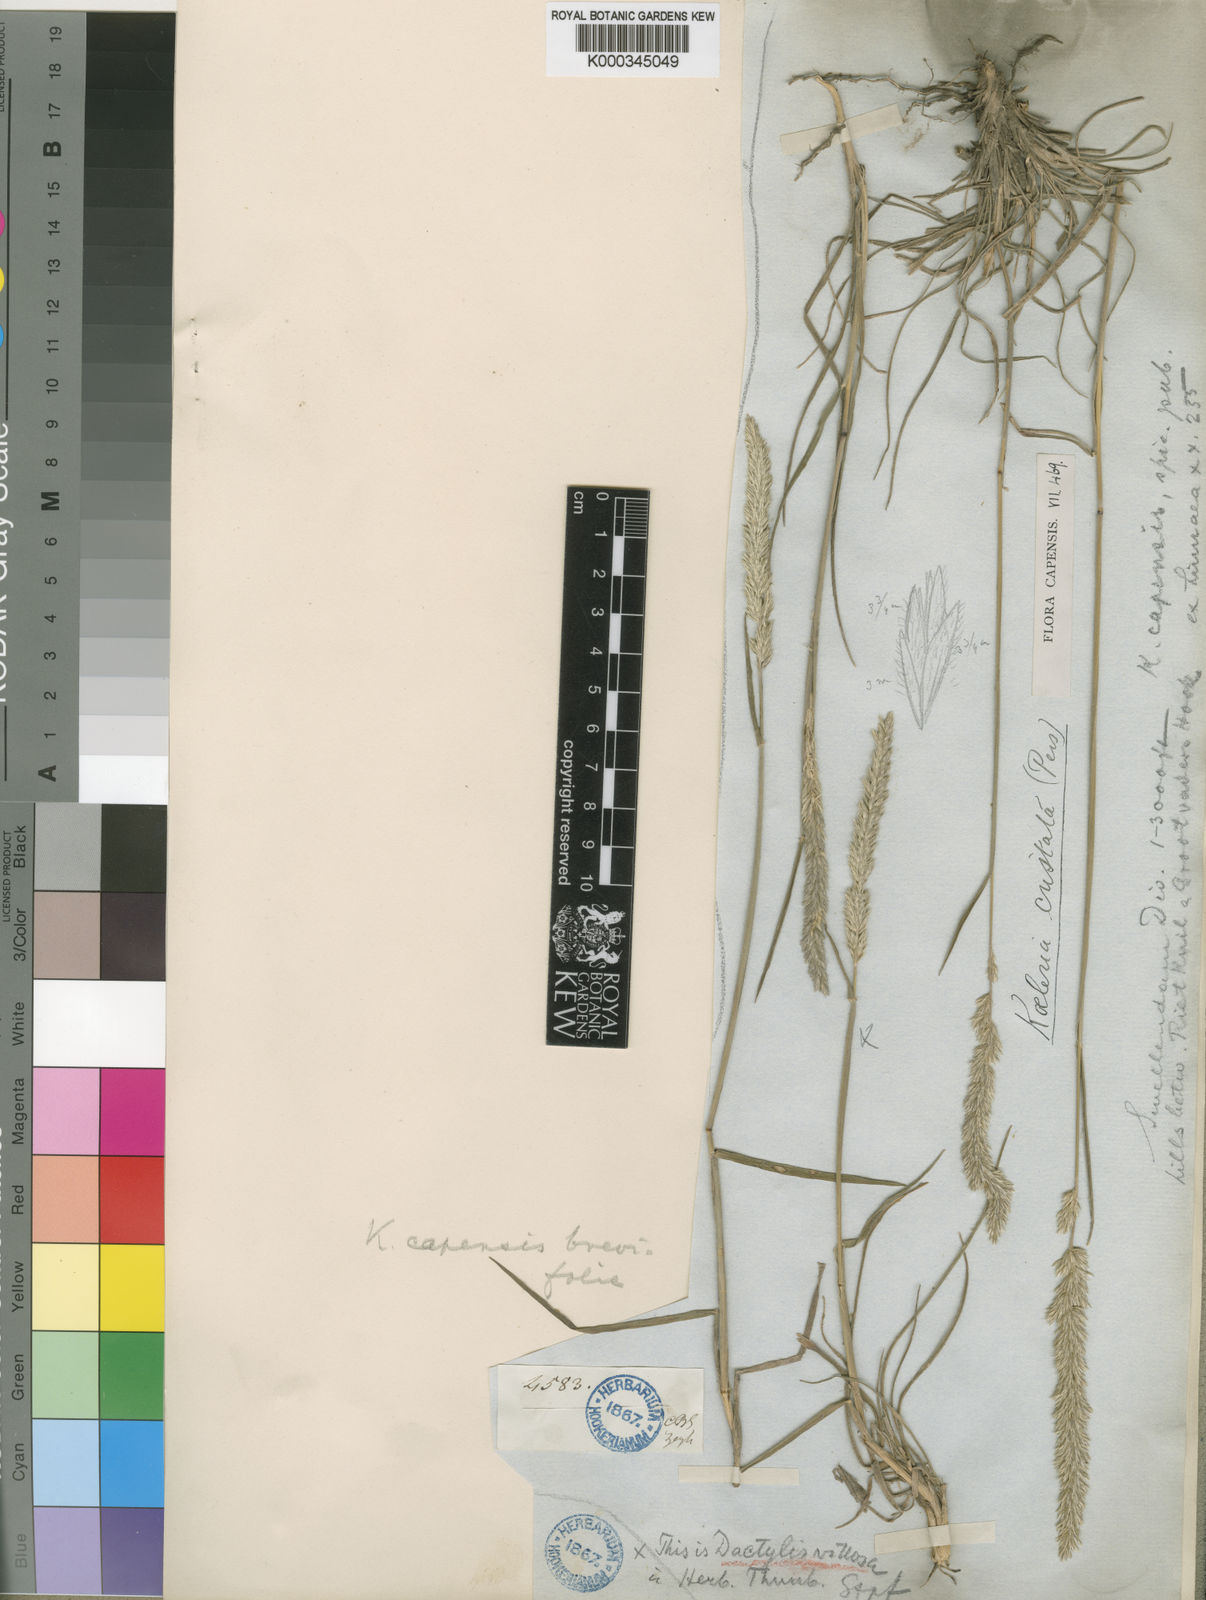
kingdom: Plantae
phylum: Tracheophyta
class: Liliopsida
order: Poales
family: Poaceae
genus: Koeleria
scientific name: Koeleria capensis
